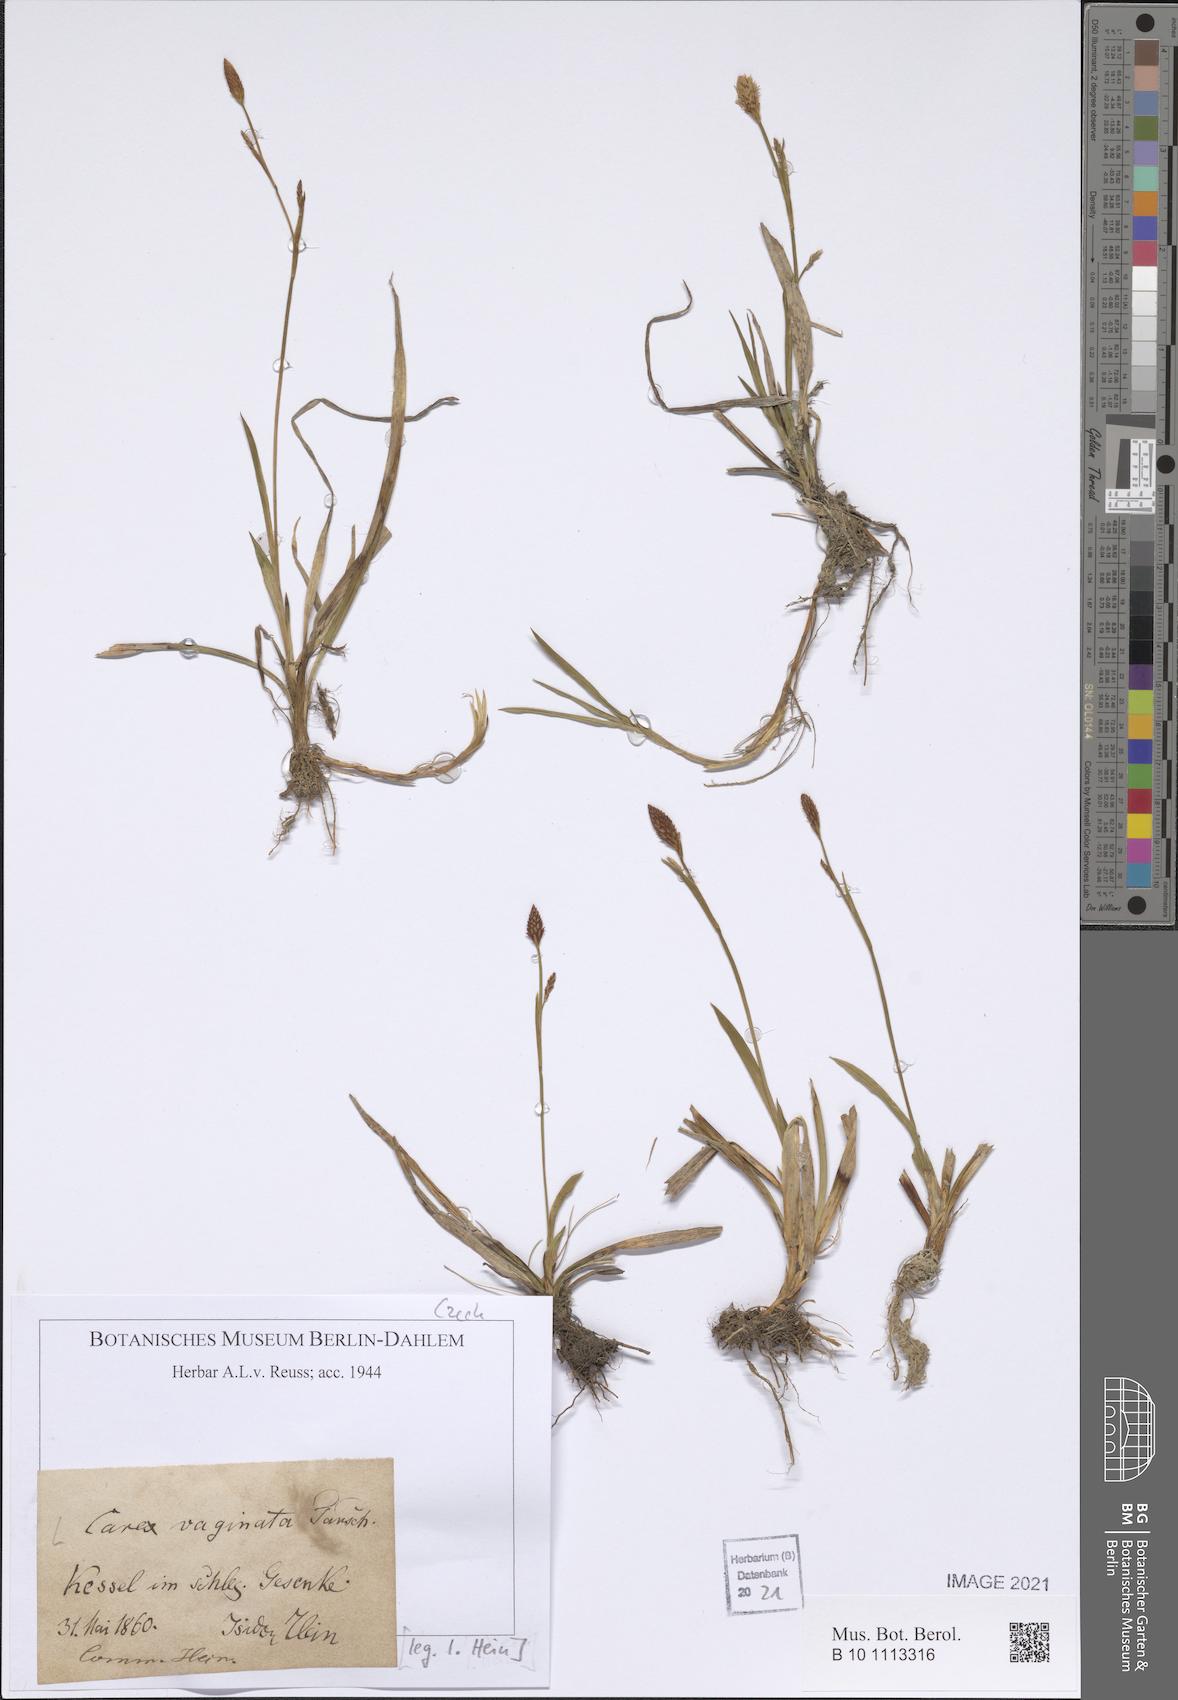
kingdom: Plantae
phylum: Tracheophyta
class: Liliopsida
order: Poales
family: Cyperaceae
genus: Carex
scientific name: Carex vaginata
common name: Sheathed sedge
